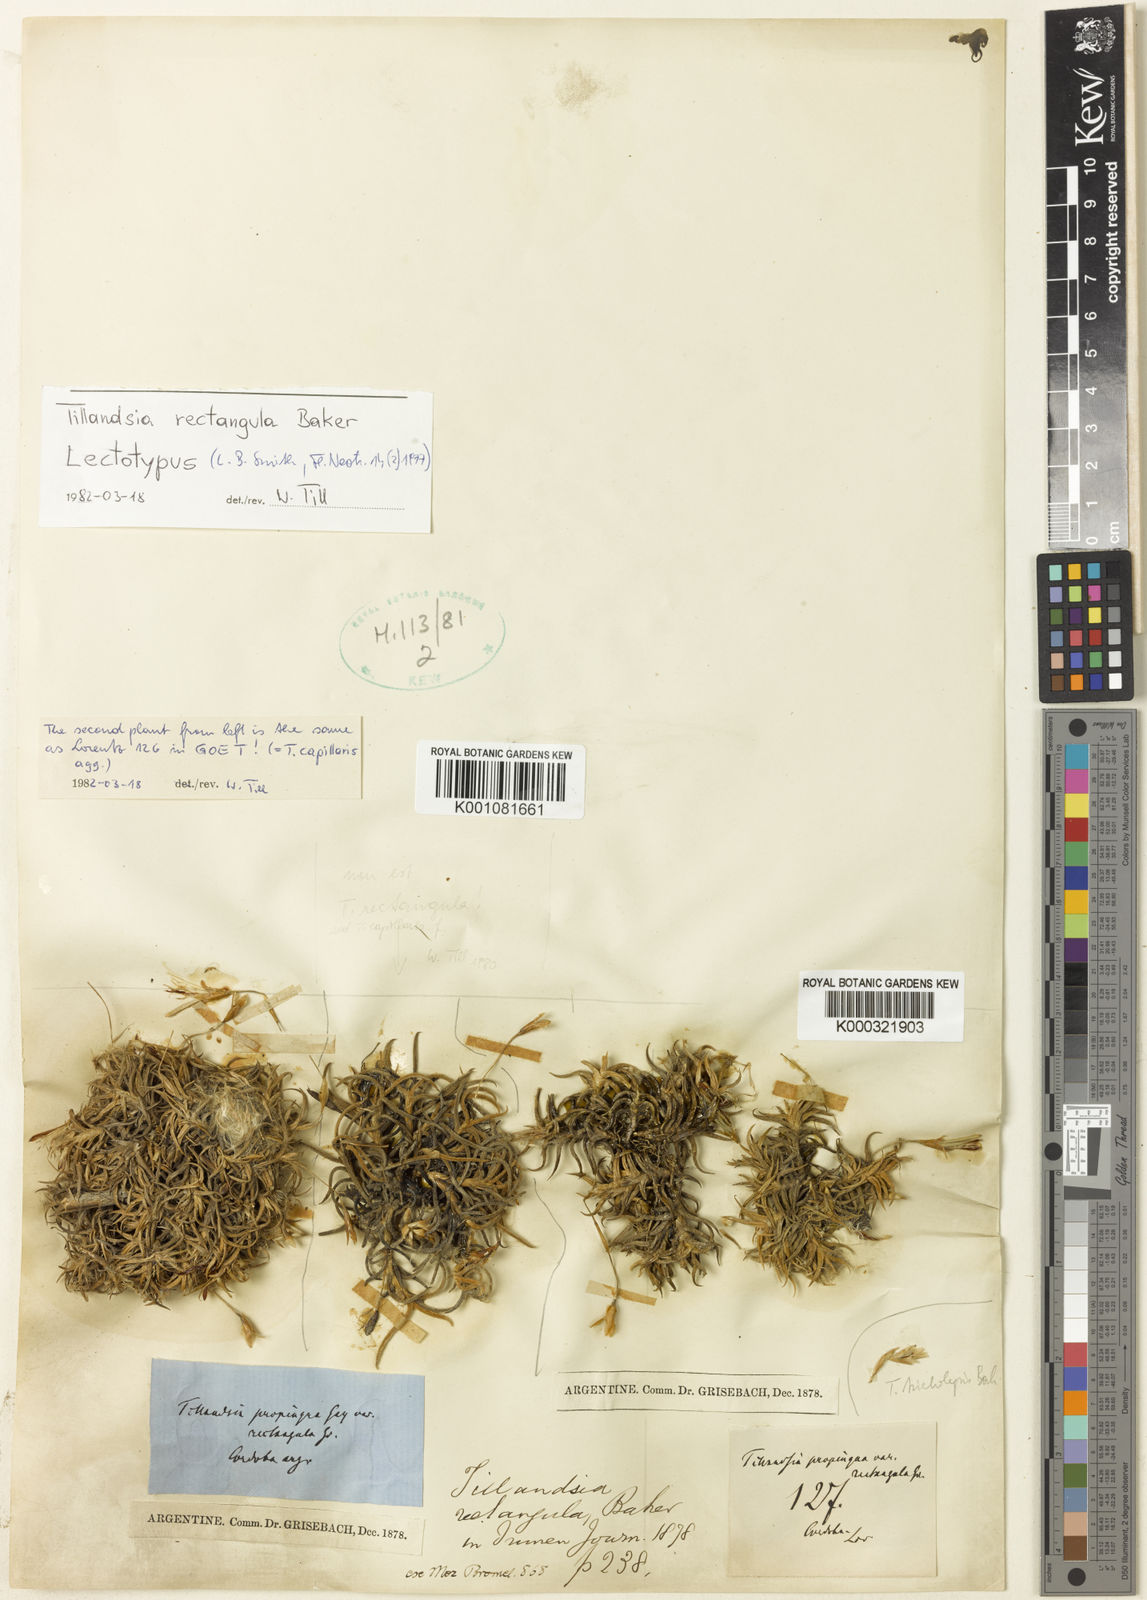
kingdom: Plantae
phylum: Tracheophyta
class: Liliopsida
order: Poales
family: Bromeliaceae
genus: Tillandsia
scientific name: Tillandsia rectangula
